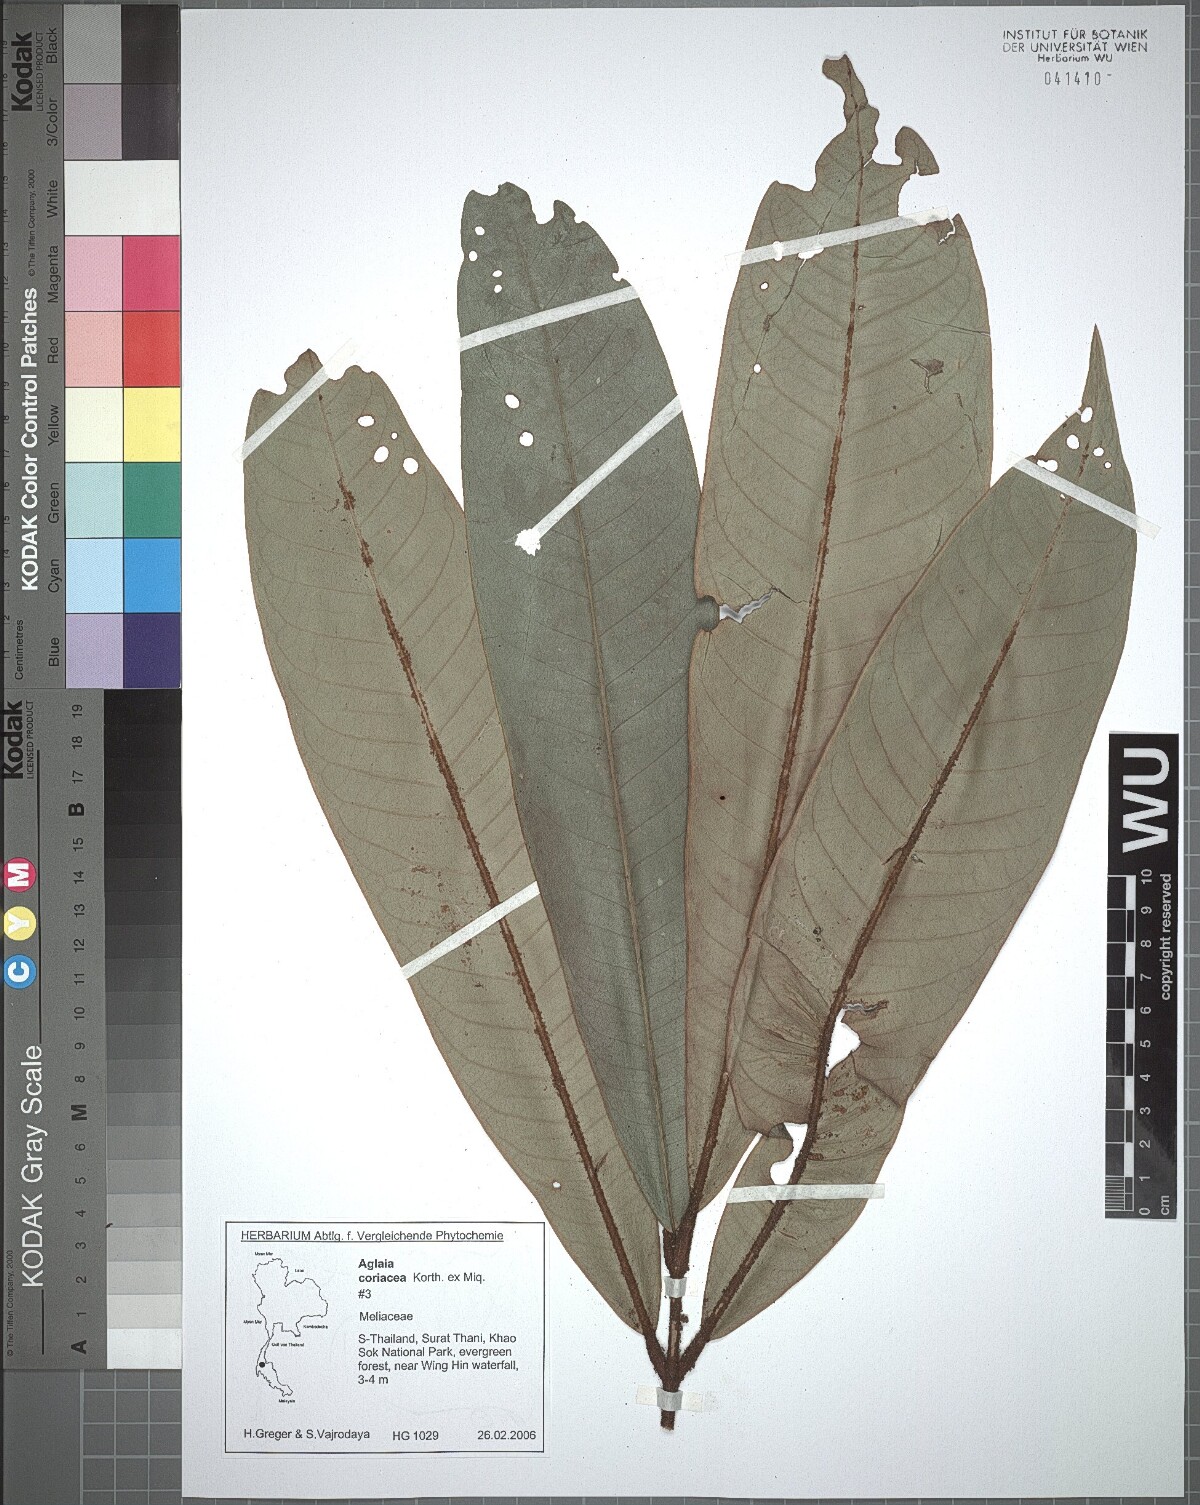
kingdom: Plantae
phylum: Tracheophyta
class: Magnoliopsida
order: Sapindales
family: Meliaceae
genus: Aglaia
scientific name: Aglaia coriacea
